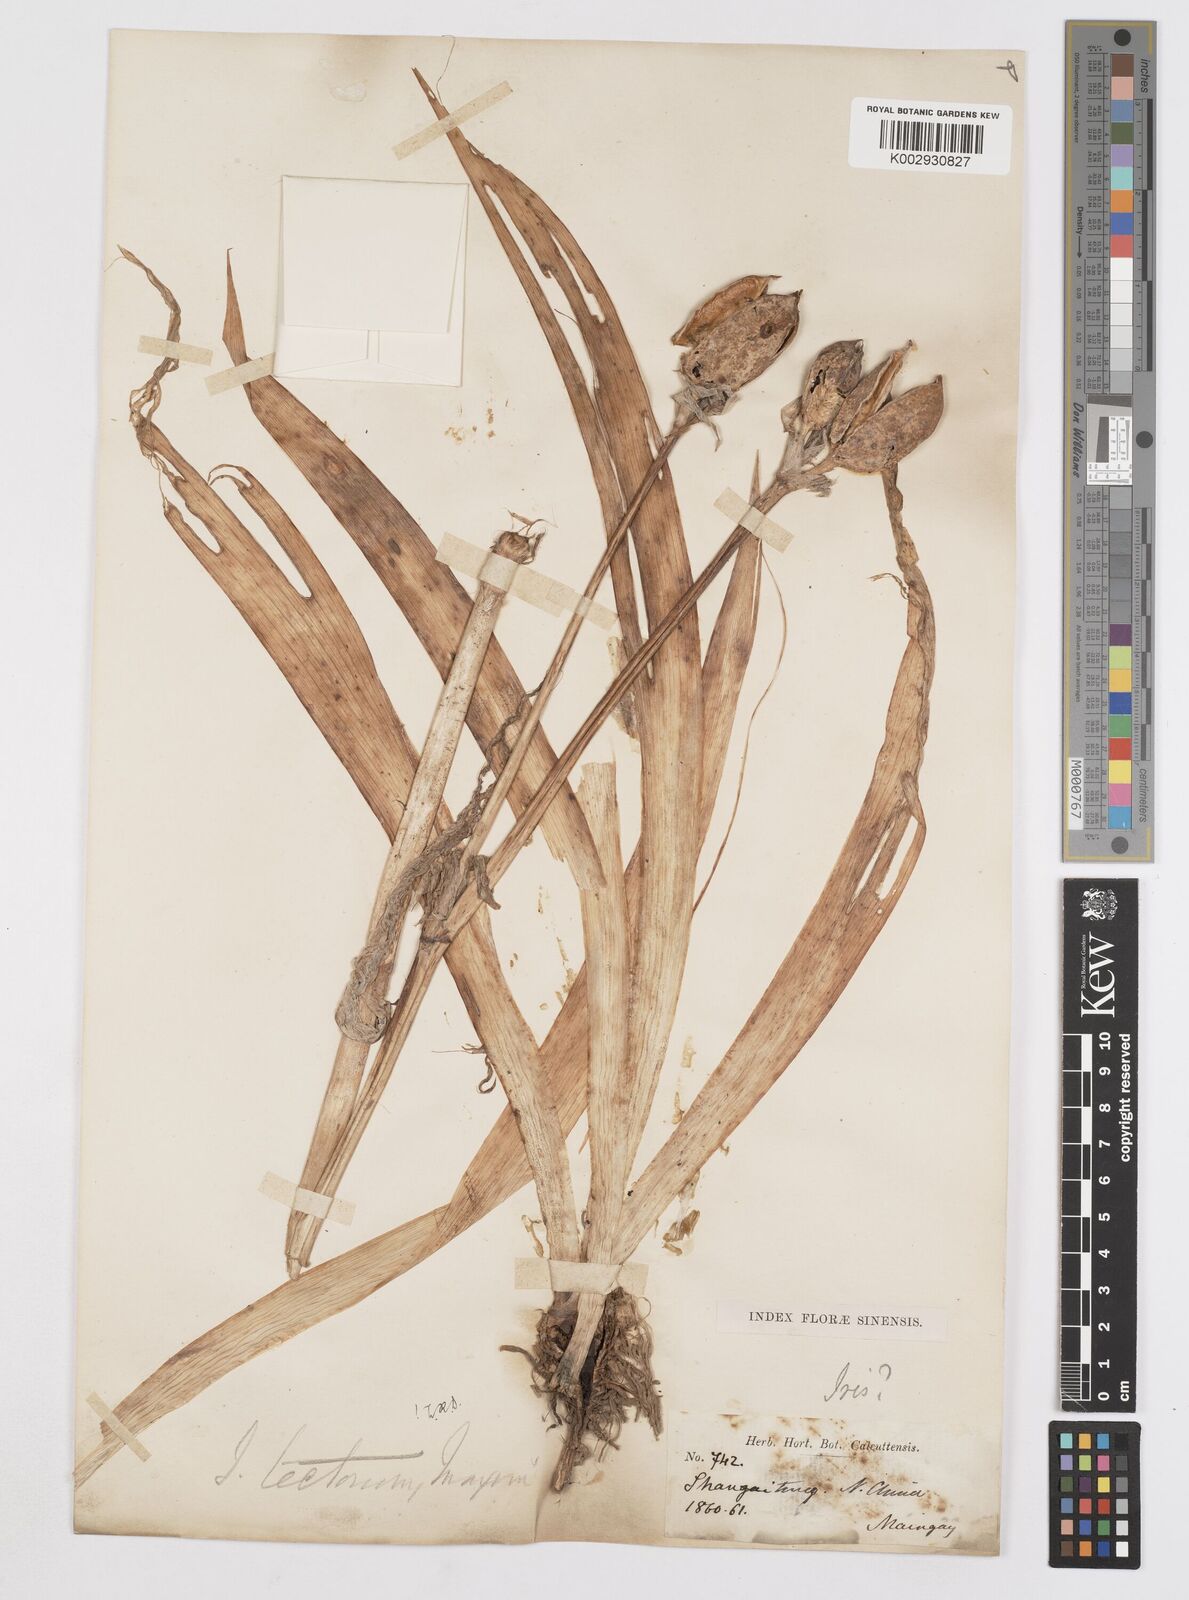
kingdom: Plantae
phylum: Tracheophyta
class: Liliopsida
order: Asparagales
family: Iridaceae
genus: Iris
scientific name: Iris tectorum
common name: Wall iris
